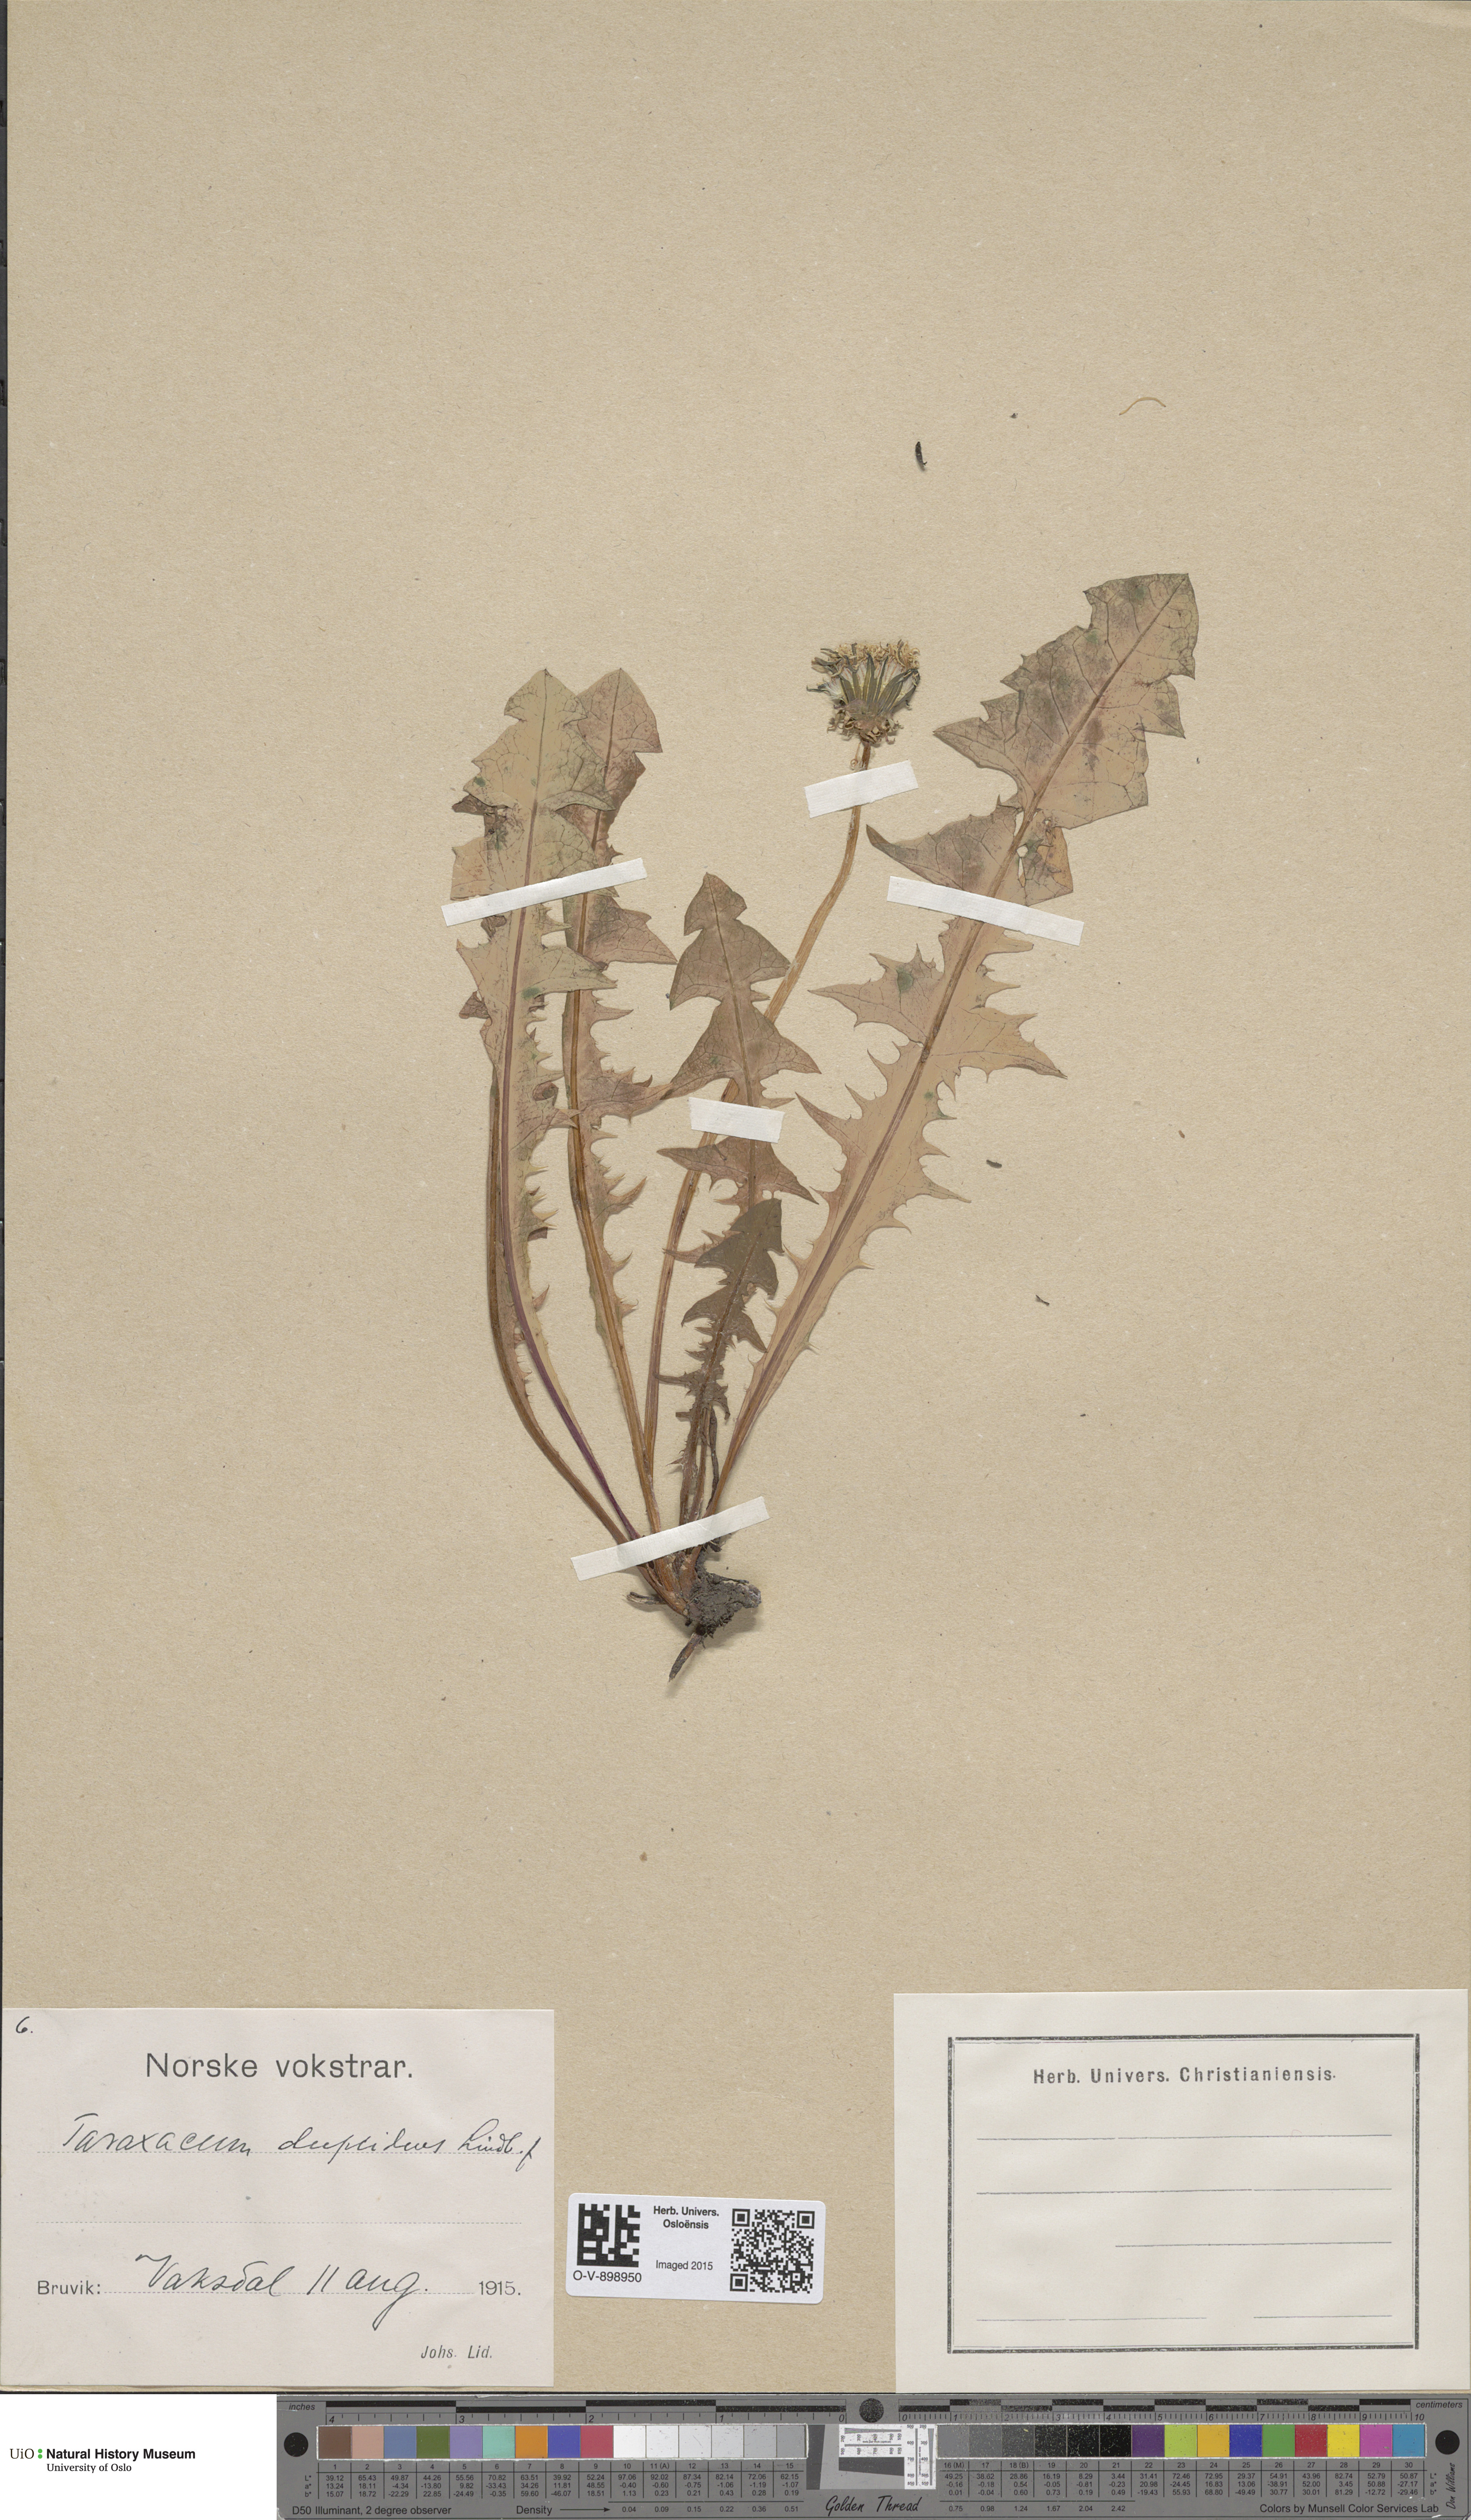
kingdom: Plantae
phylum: Tracheophyta
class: Magnoliopsida
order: Asterales
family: Asteraceae
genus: Taraxacum
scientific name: Taraxacum ostenfeldii
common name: Ostenfeld's dandelion
